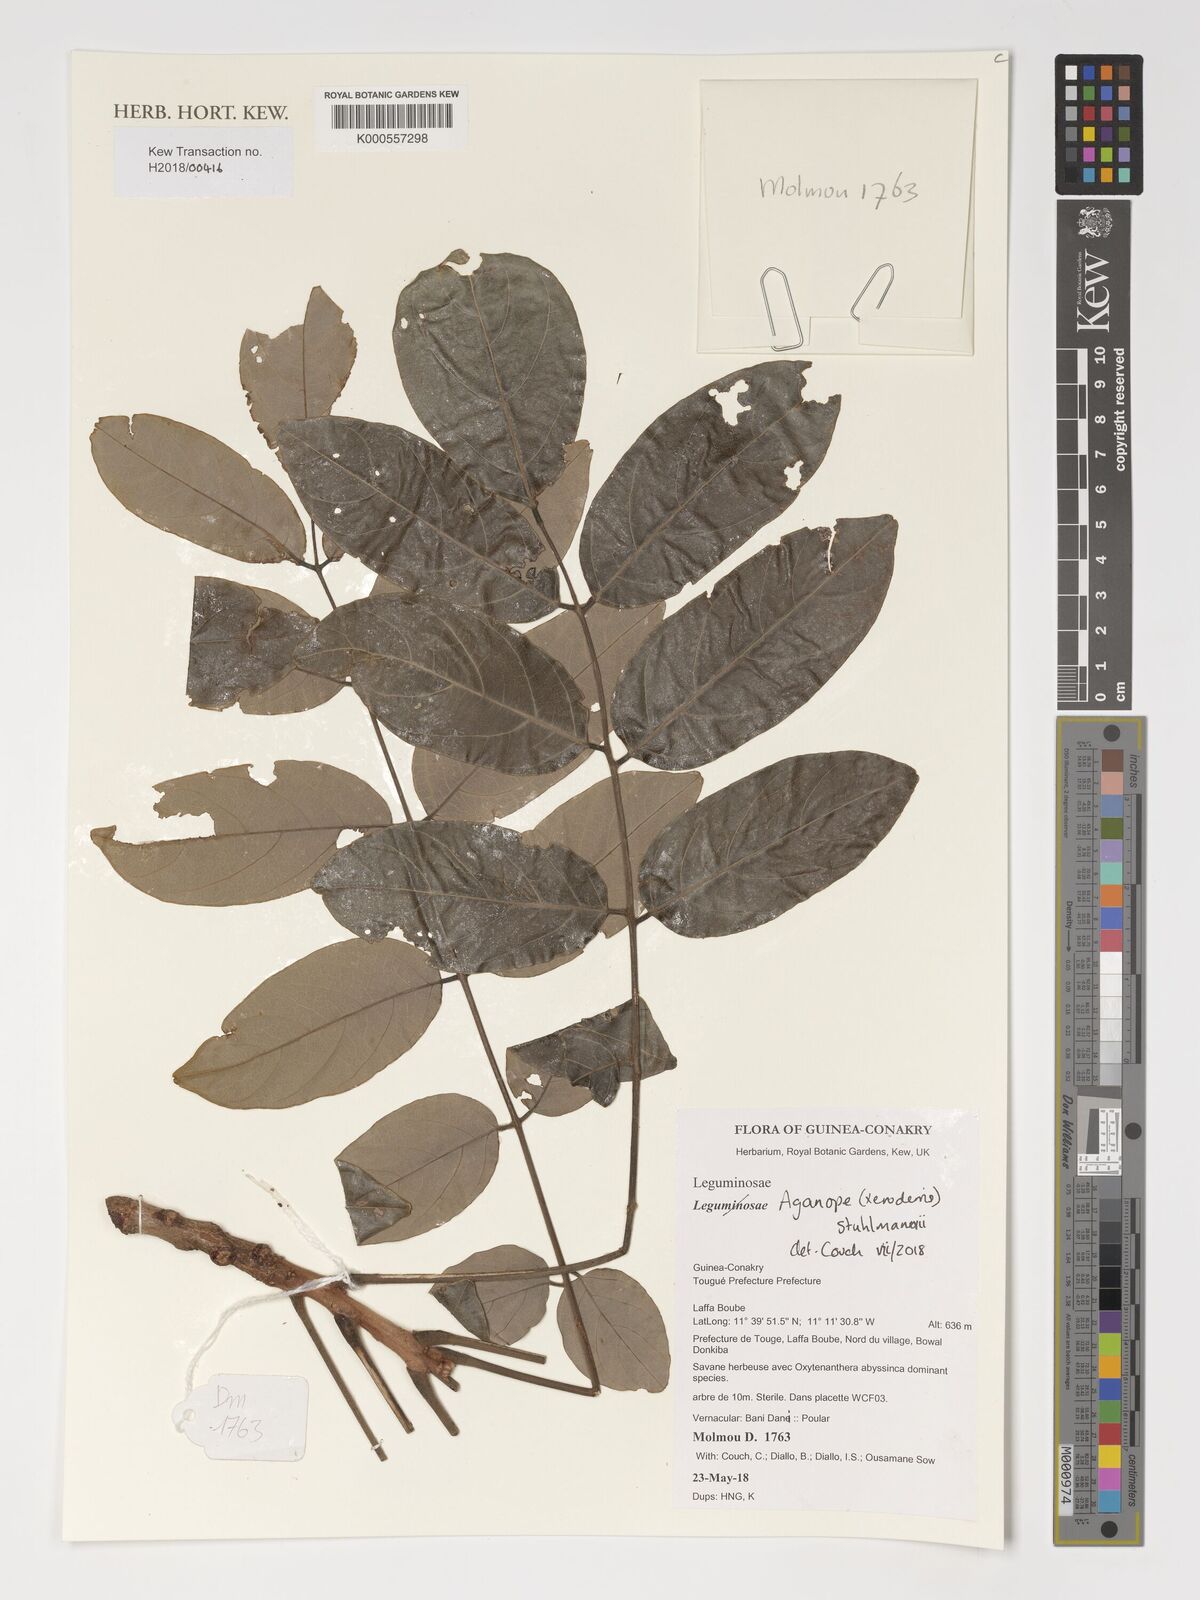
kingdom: Plantae
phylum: Tracheophyta
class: Magnoliopsida
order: Fabales
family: Fabaceae
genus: Aganope
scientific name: Aganope stuhlmannii
